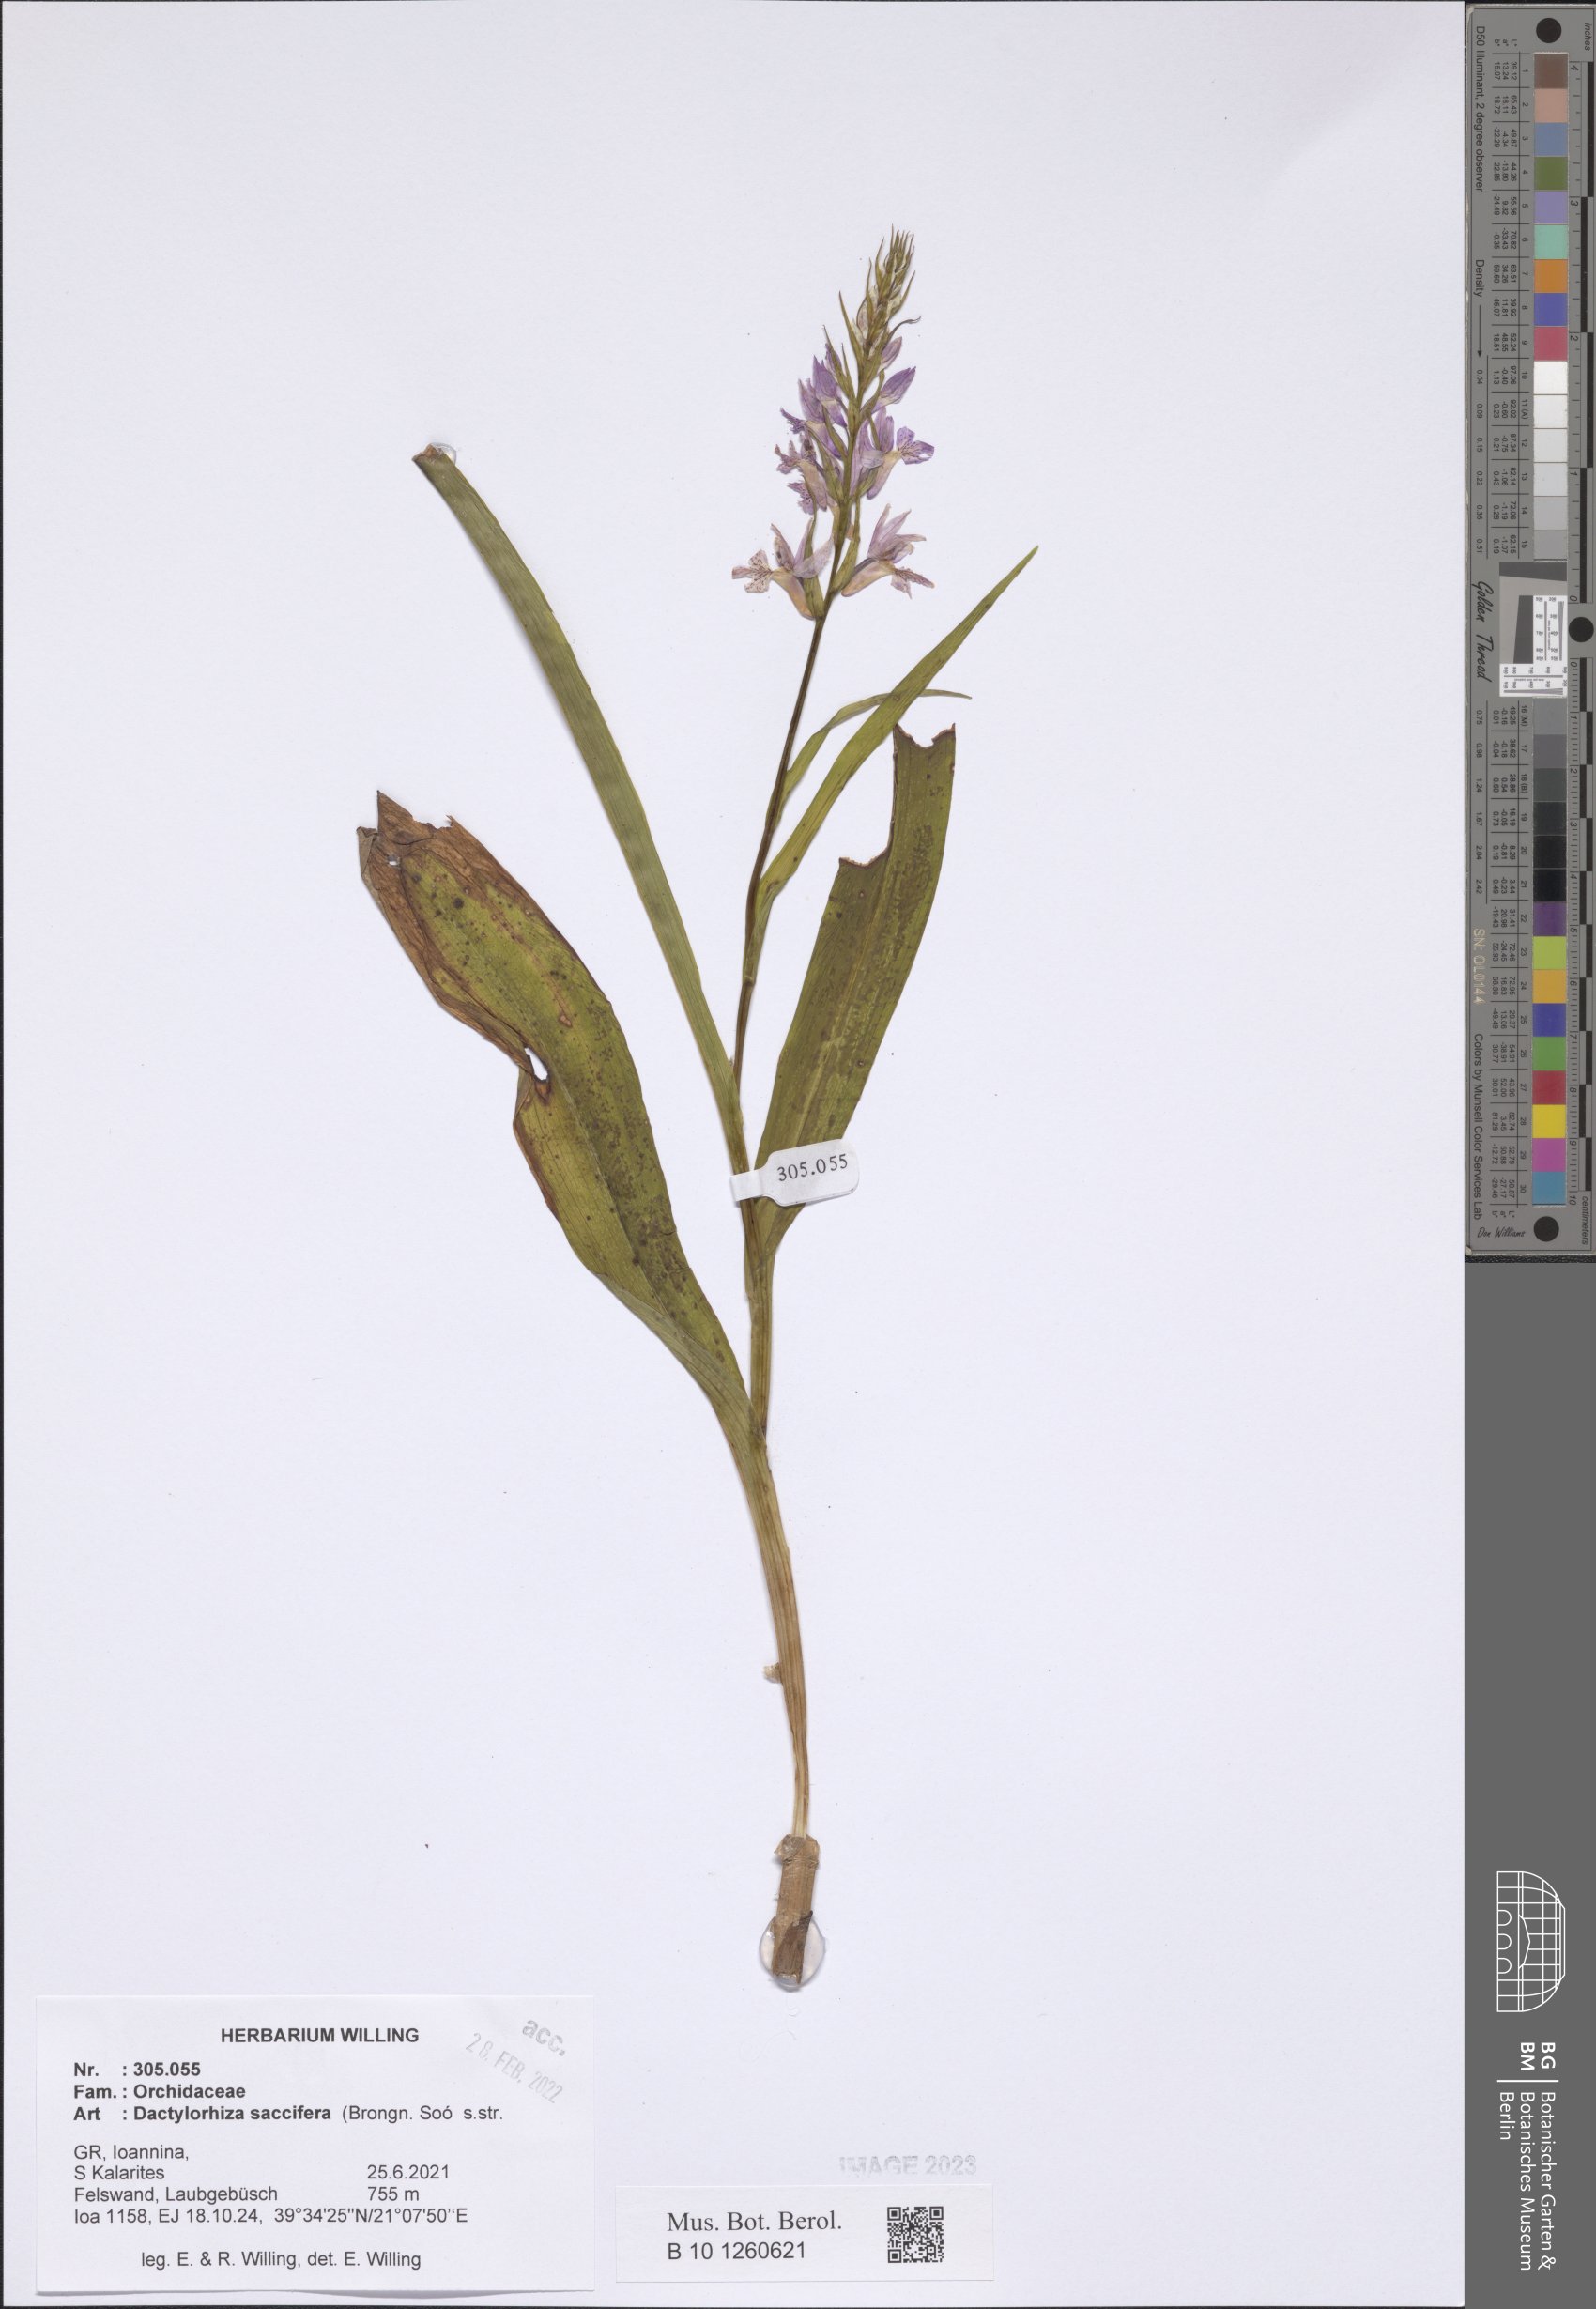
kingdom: Plantae
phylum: Tracheophyta
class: Liliopsida
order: Asparagales
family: Orchidaceae
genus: Dactylorhiza
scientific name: Dactylorhiza maculata
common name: Heath spotted-orchid
